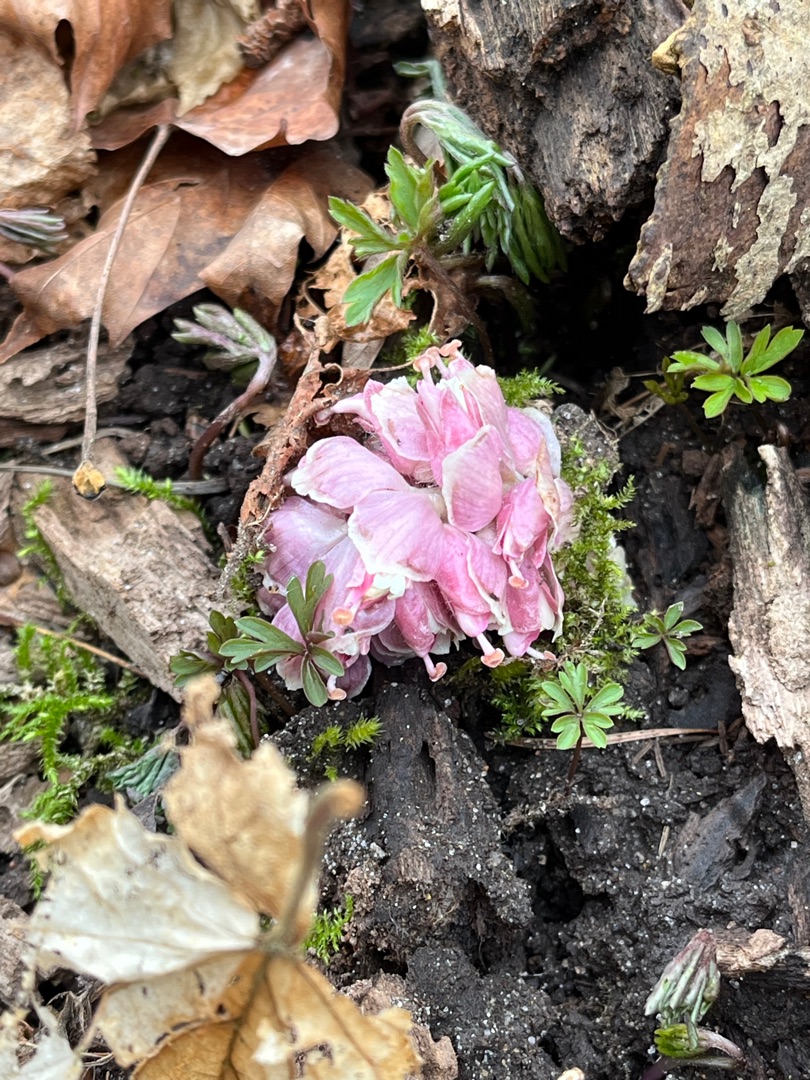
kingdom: Plantae
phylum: Tracheophyta
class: Magnoliopsida
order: Lamiales
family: Orobanchaceae
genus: Lathraea
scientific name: Lathraea squamaria
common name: Skælrod
